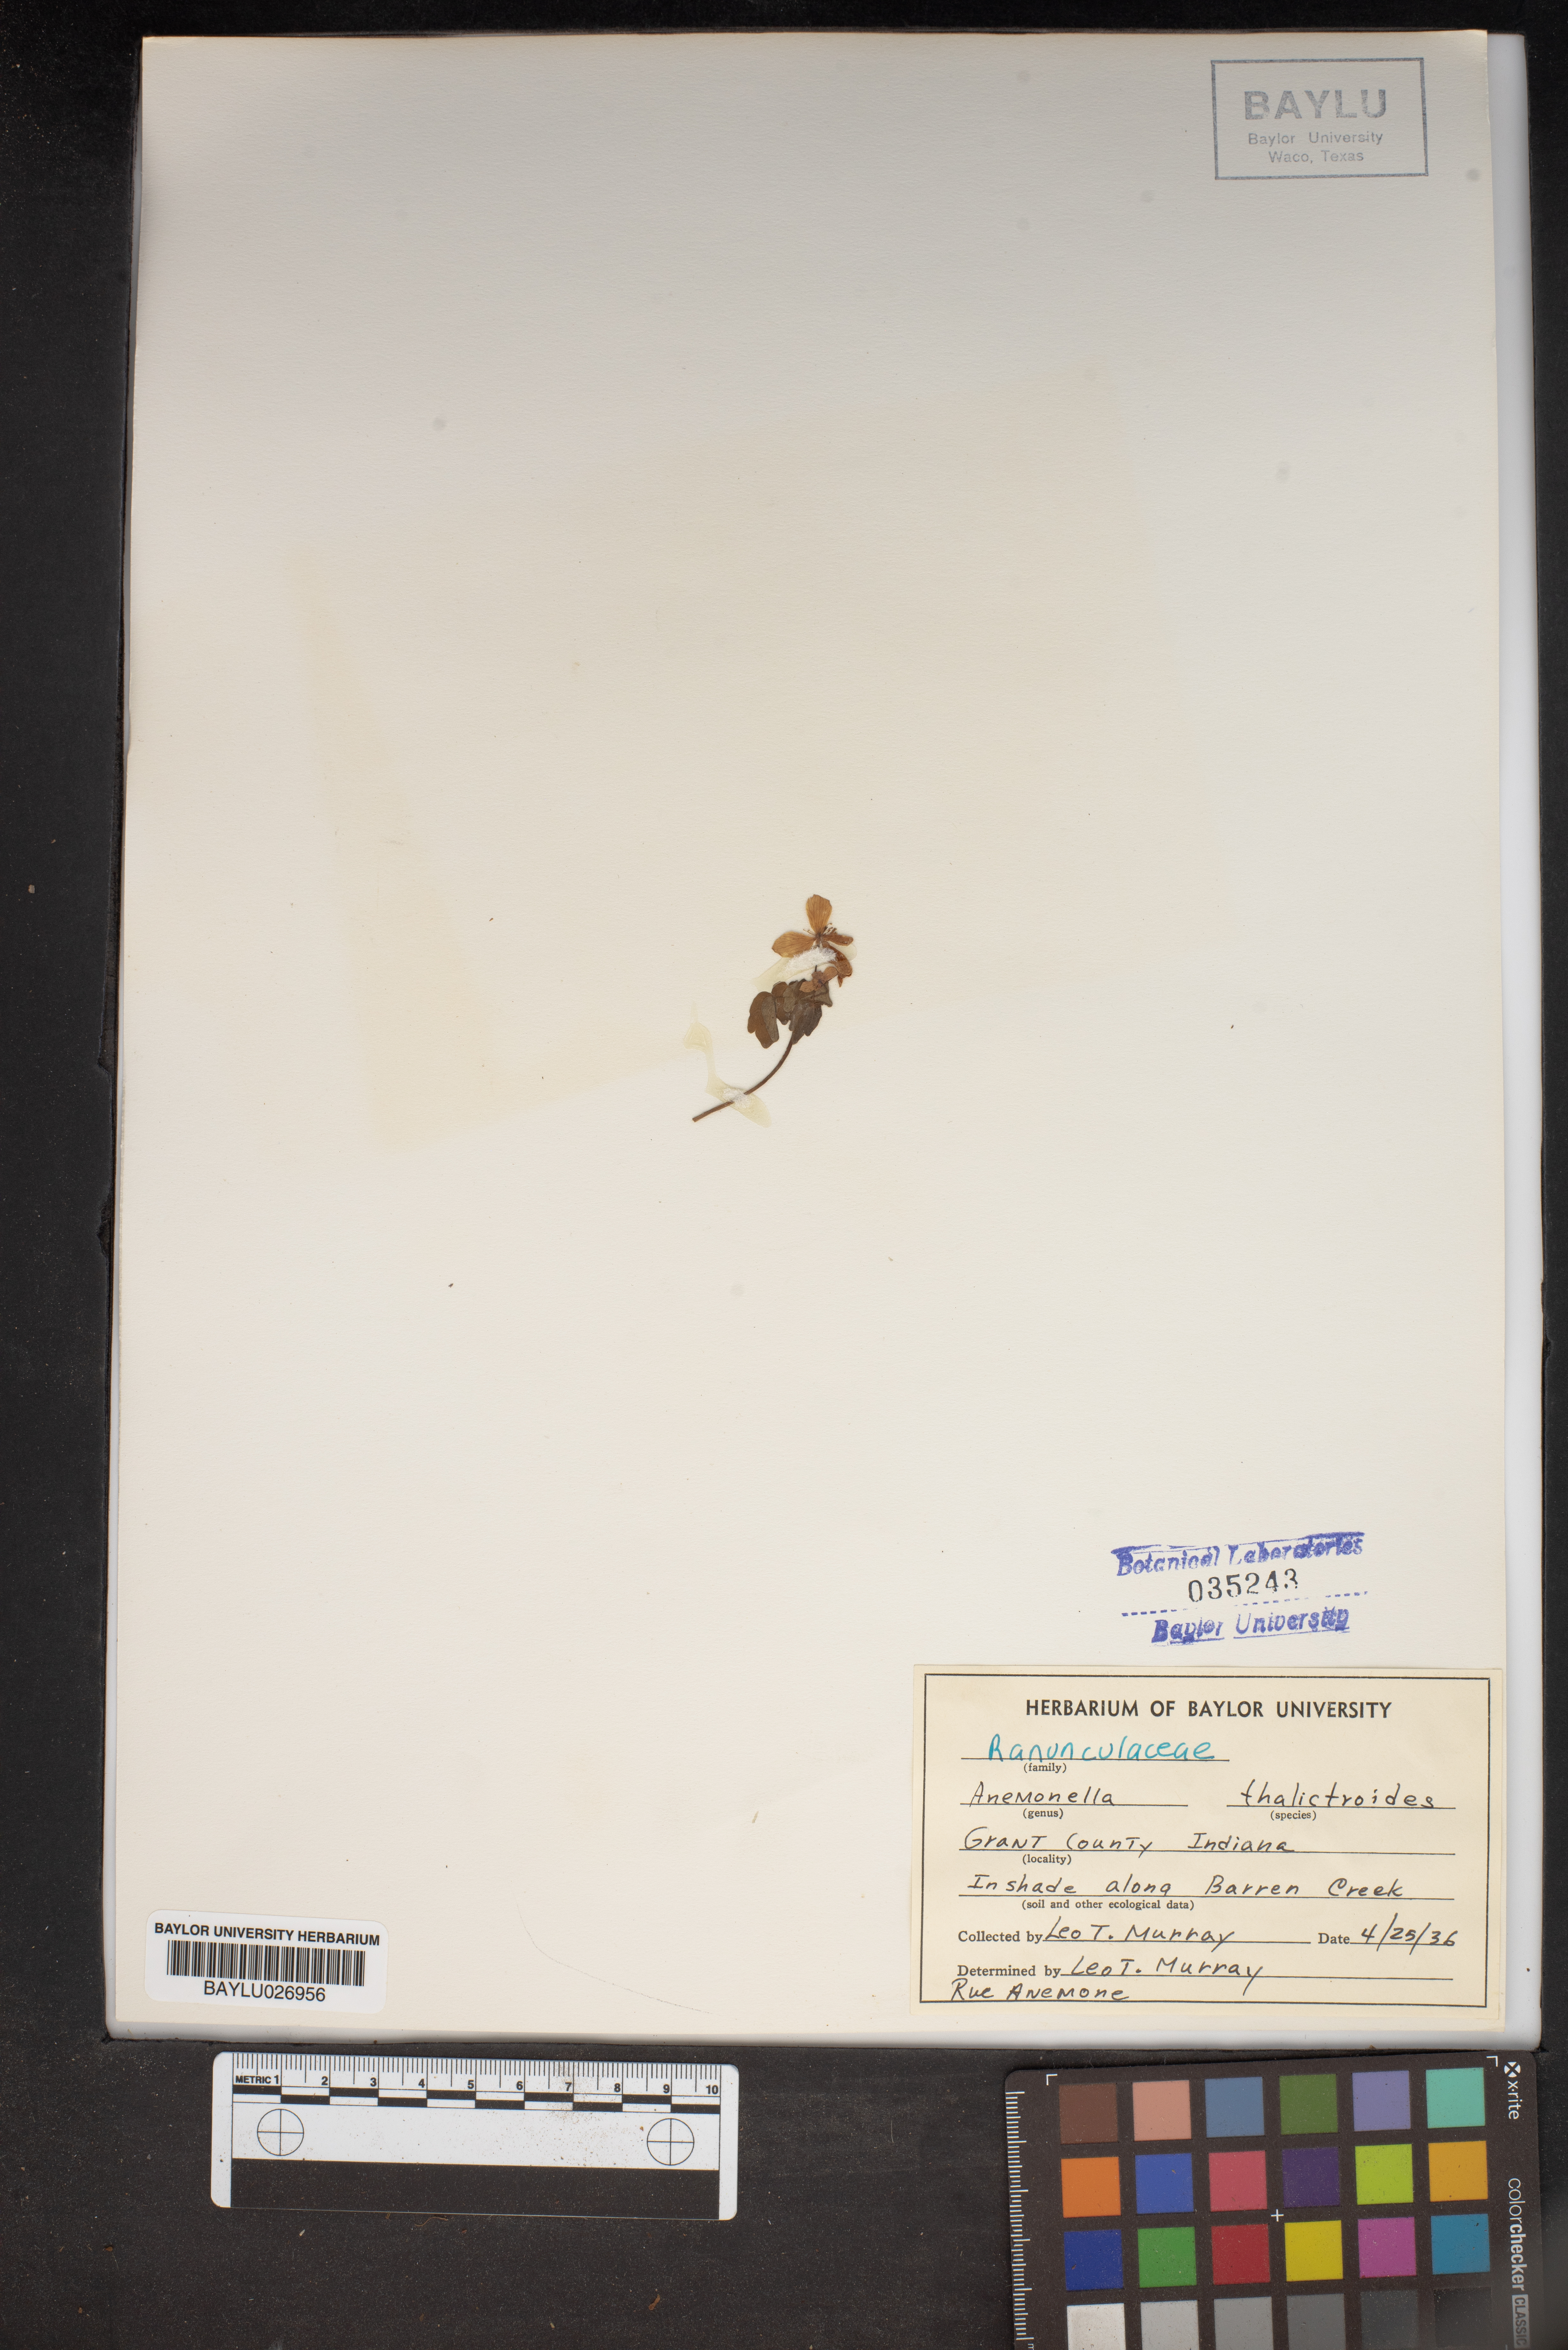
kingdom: Plantae
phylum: Tracheophyta
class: Magnoliopsida
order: Ranunculales
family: Ranunculaceae
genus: Thalictrum
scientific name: Thalictrum thalictroides
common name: Rue-anemone
